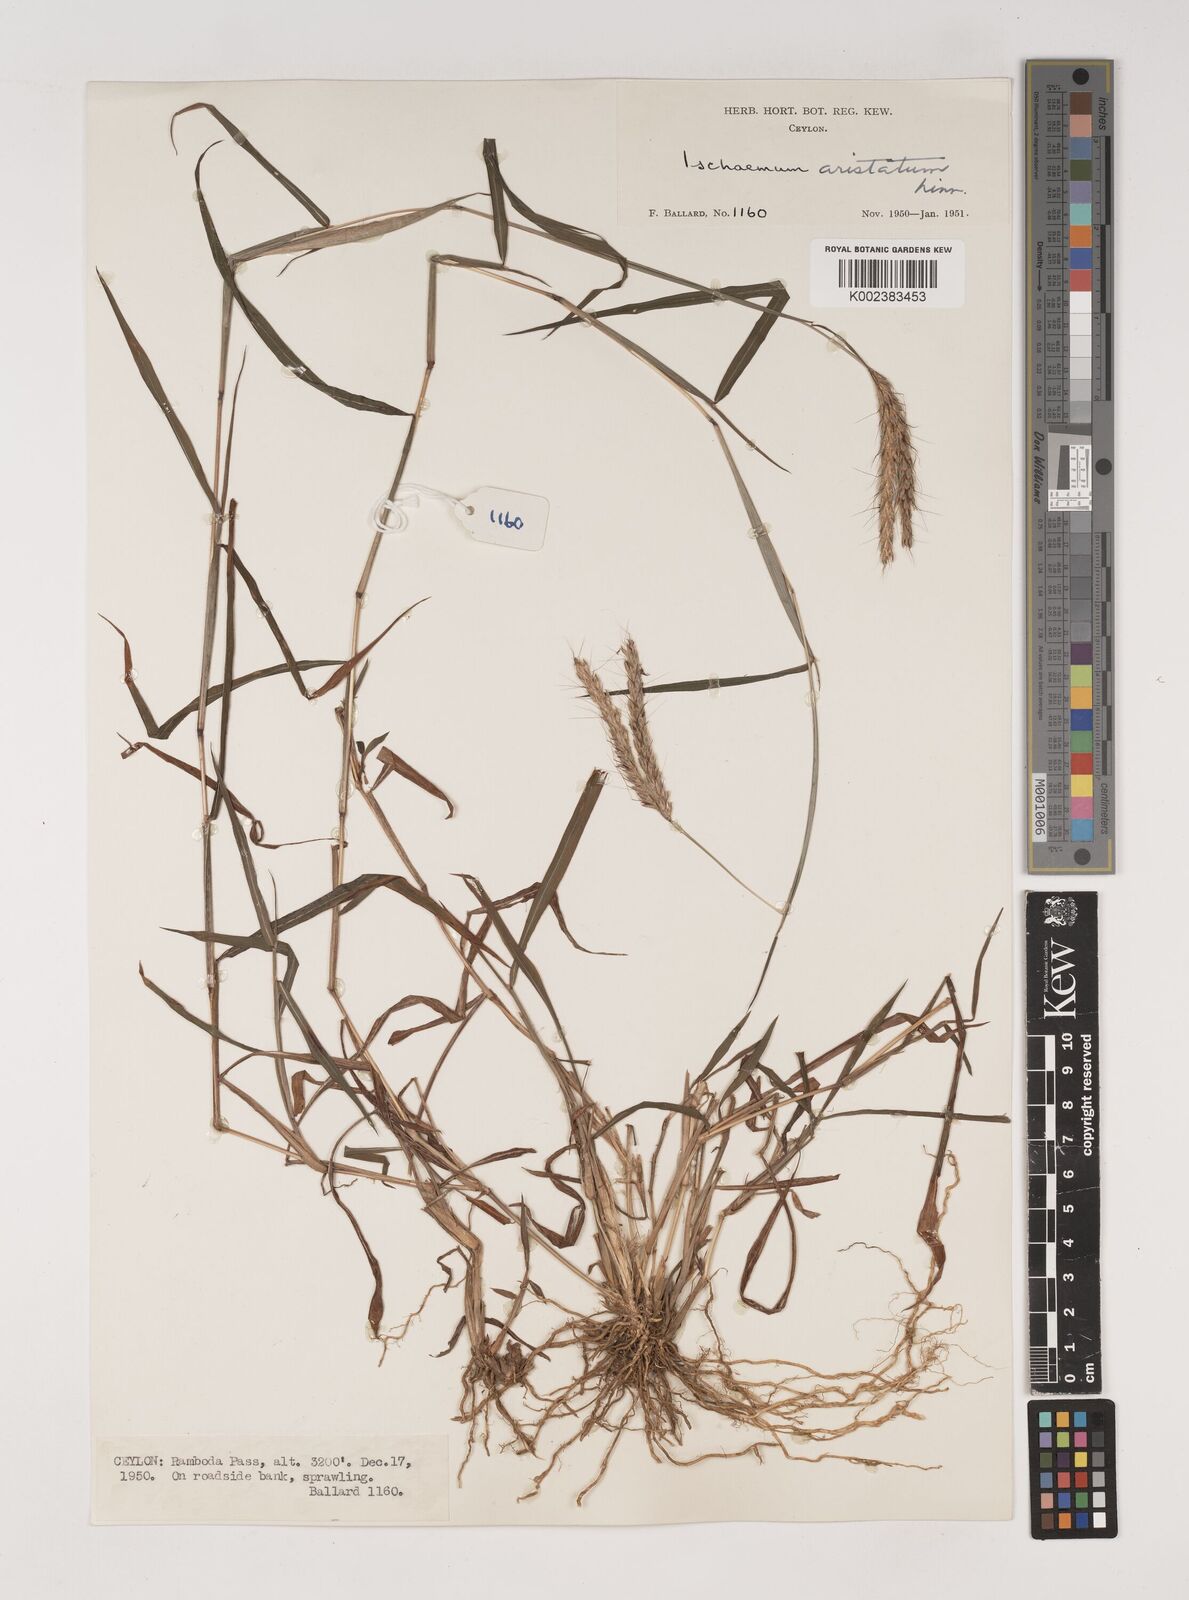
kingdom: Plantae
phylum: Tracheophyta
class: Liliopsida
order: Poales
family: Poaceae
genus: Polytrias
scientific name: Polytrias indica
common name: Indian murainagrass
